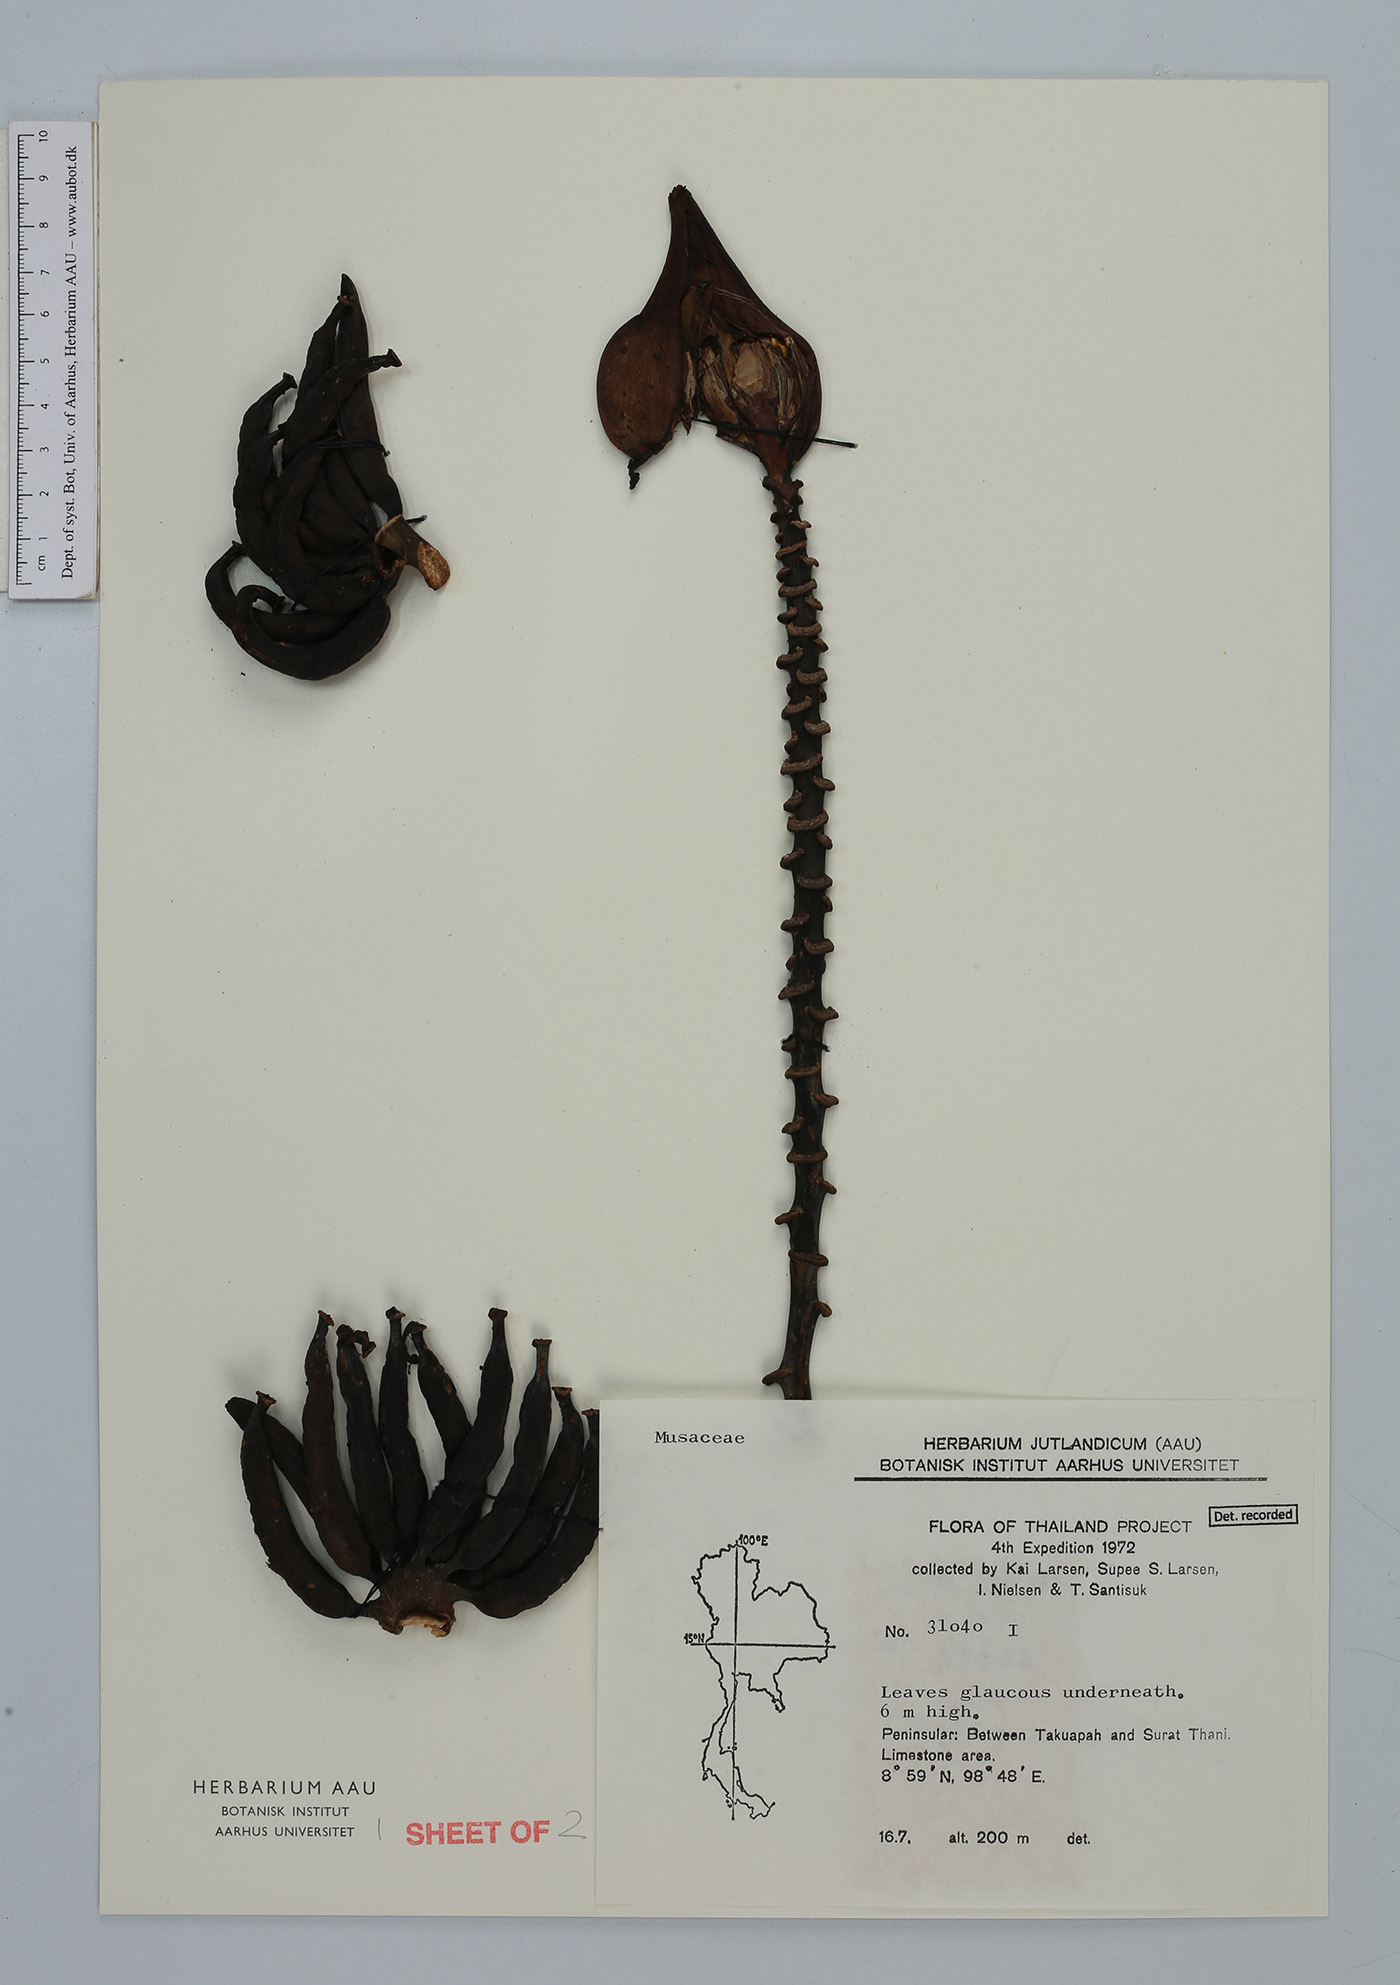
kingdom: Plantae
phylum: Tracheophyta
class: Liliopsida
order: Zingiberales
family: Musaceae
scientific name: Musaceae
